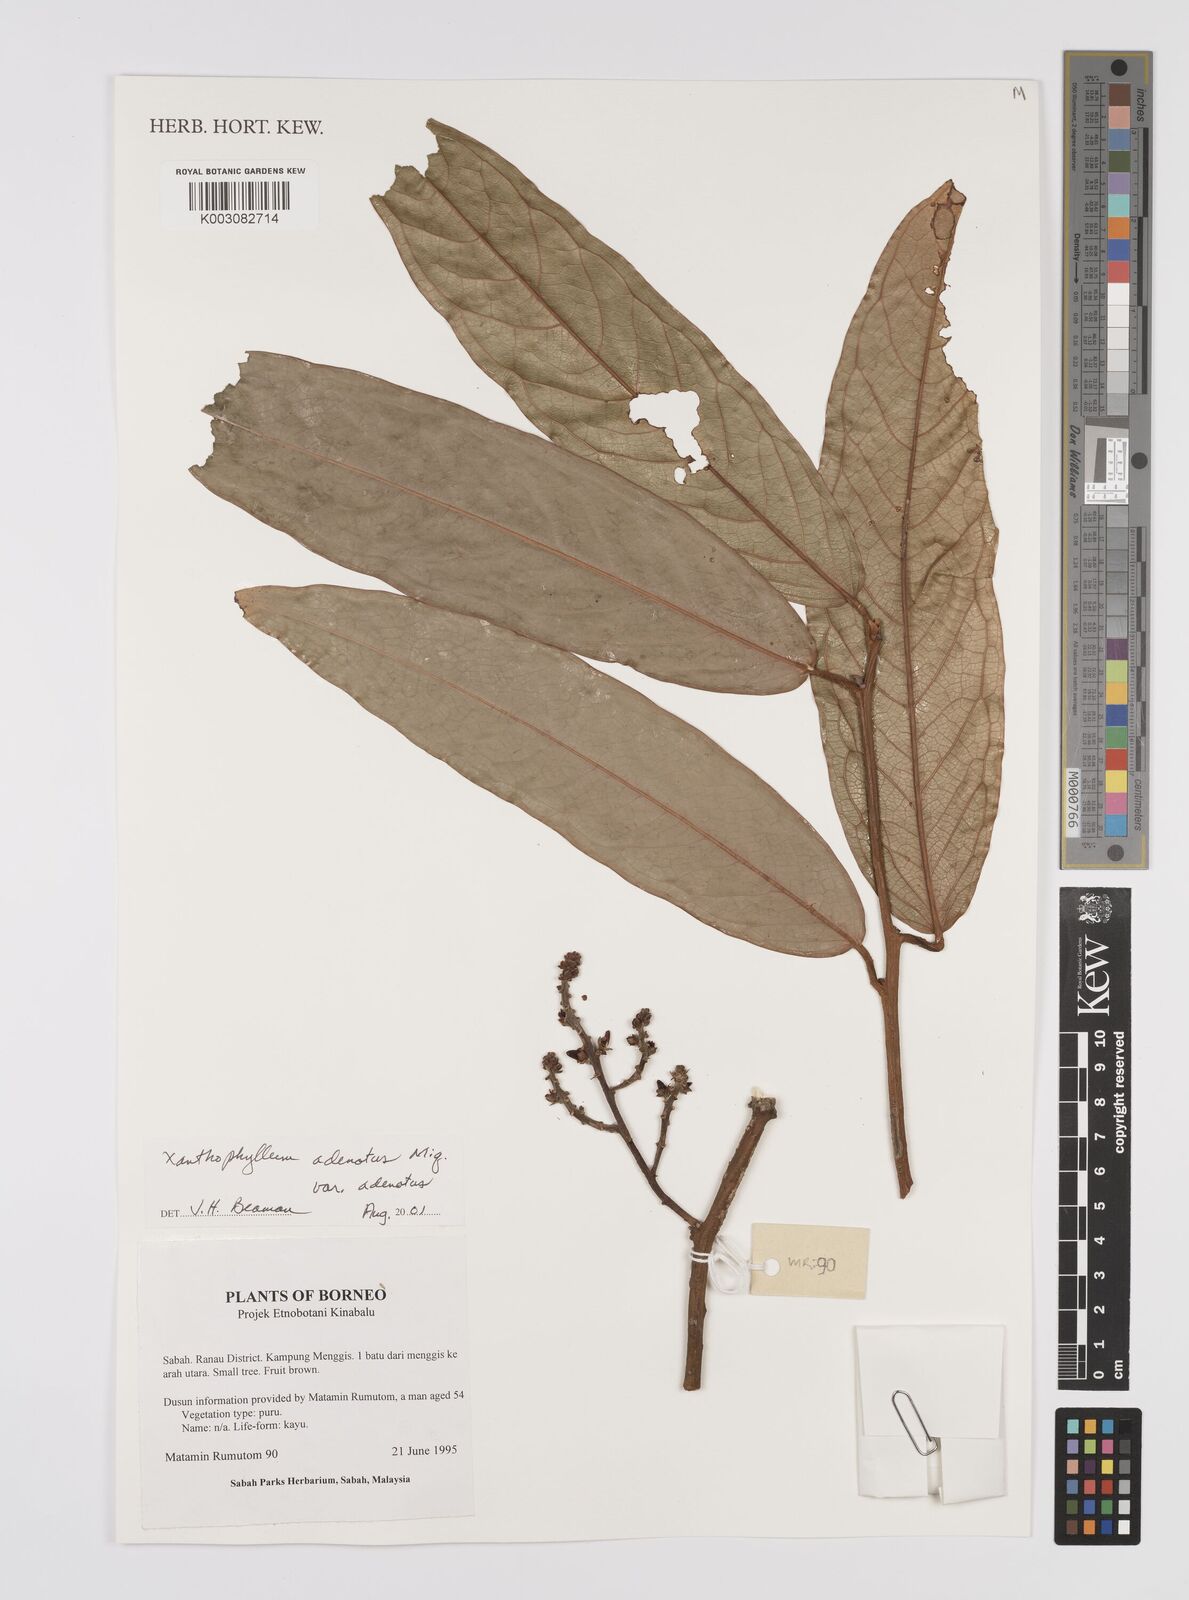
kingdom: Plantae
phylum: Tracheophyta
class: Magnoliopsida
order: Fabales
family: Polygalaceae
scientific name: Polygalaceae
